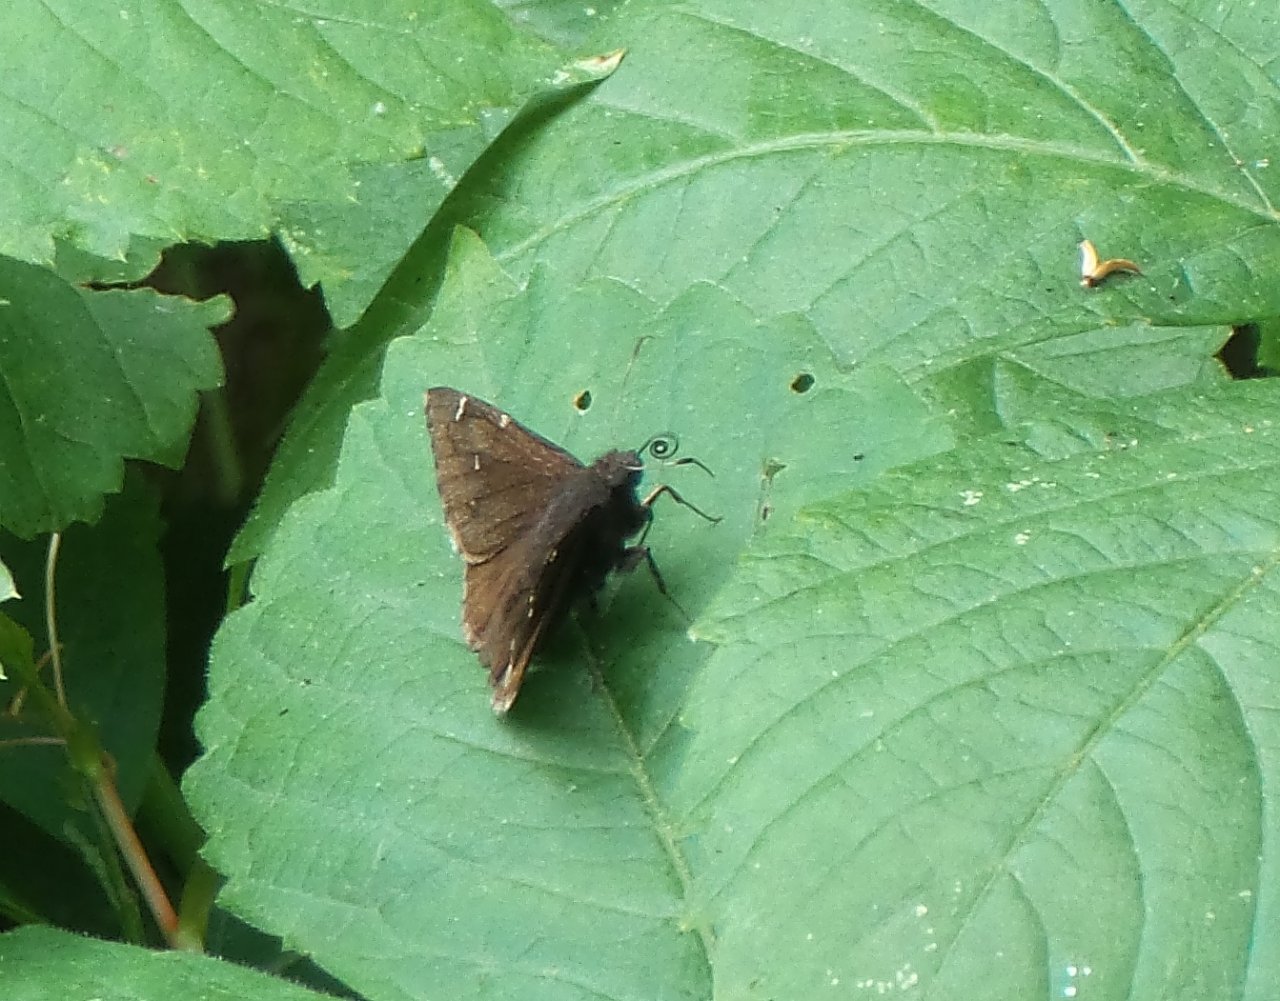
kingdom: Animalia
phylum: Arthropoda
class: Insecta
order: Lepidoptera
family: Hesperiidae
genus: Autochton
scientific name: Autochton
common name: Northern Cloudywing
